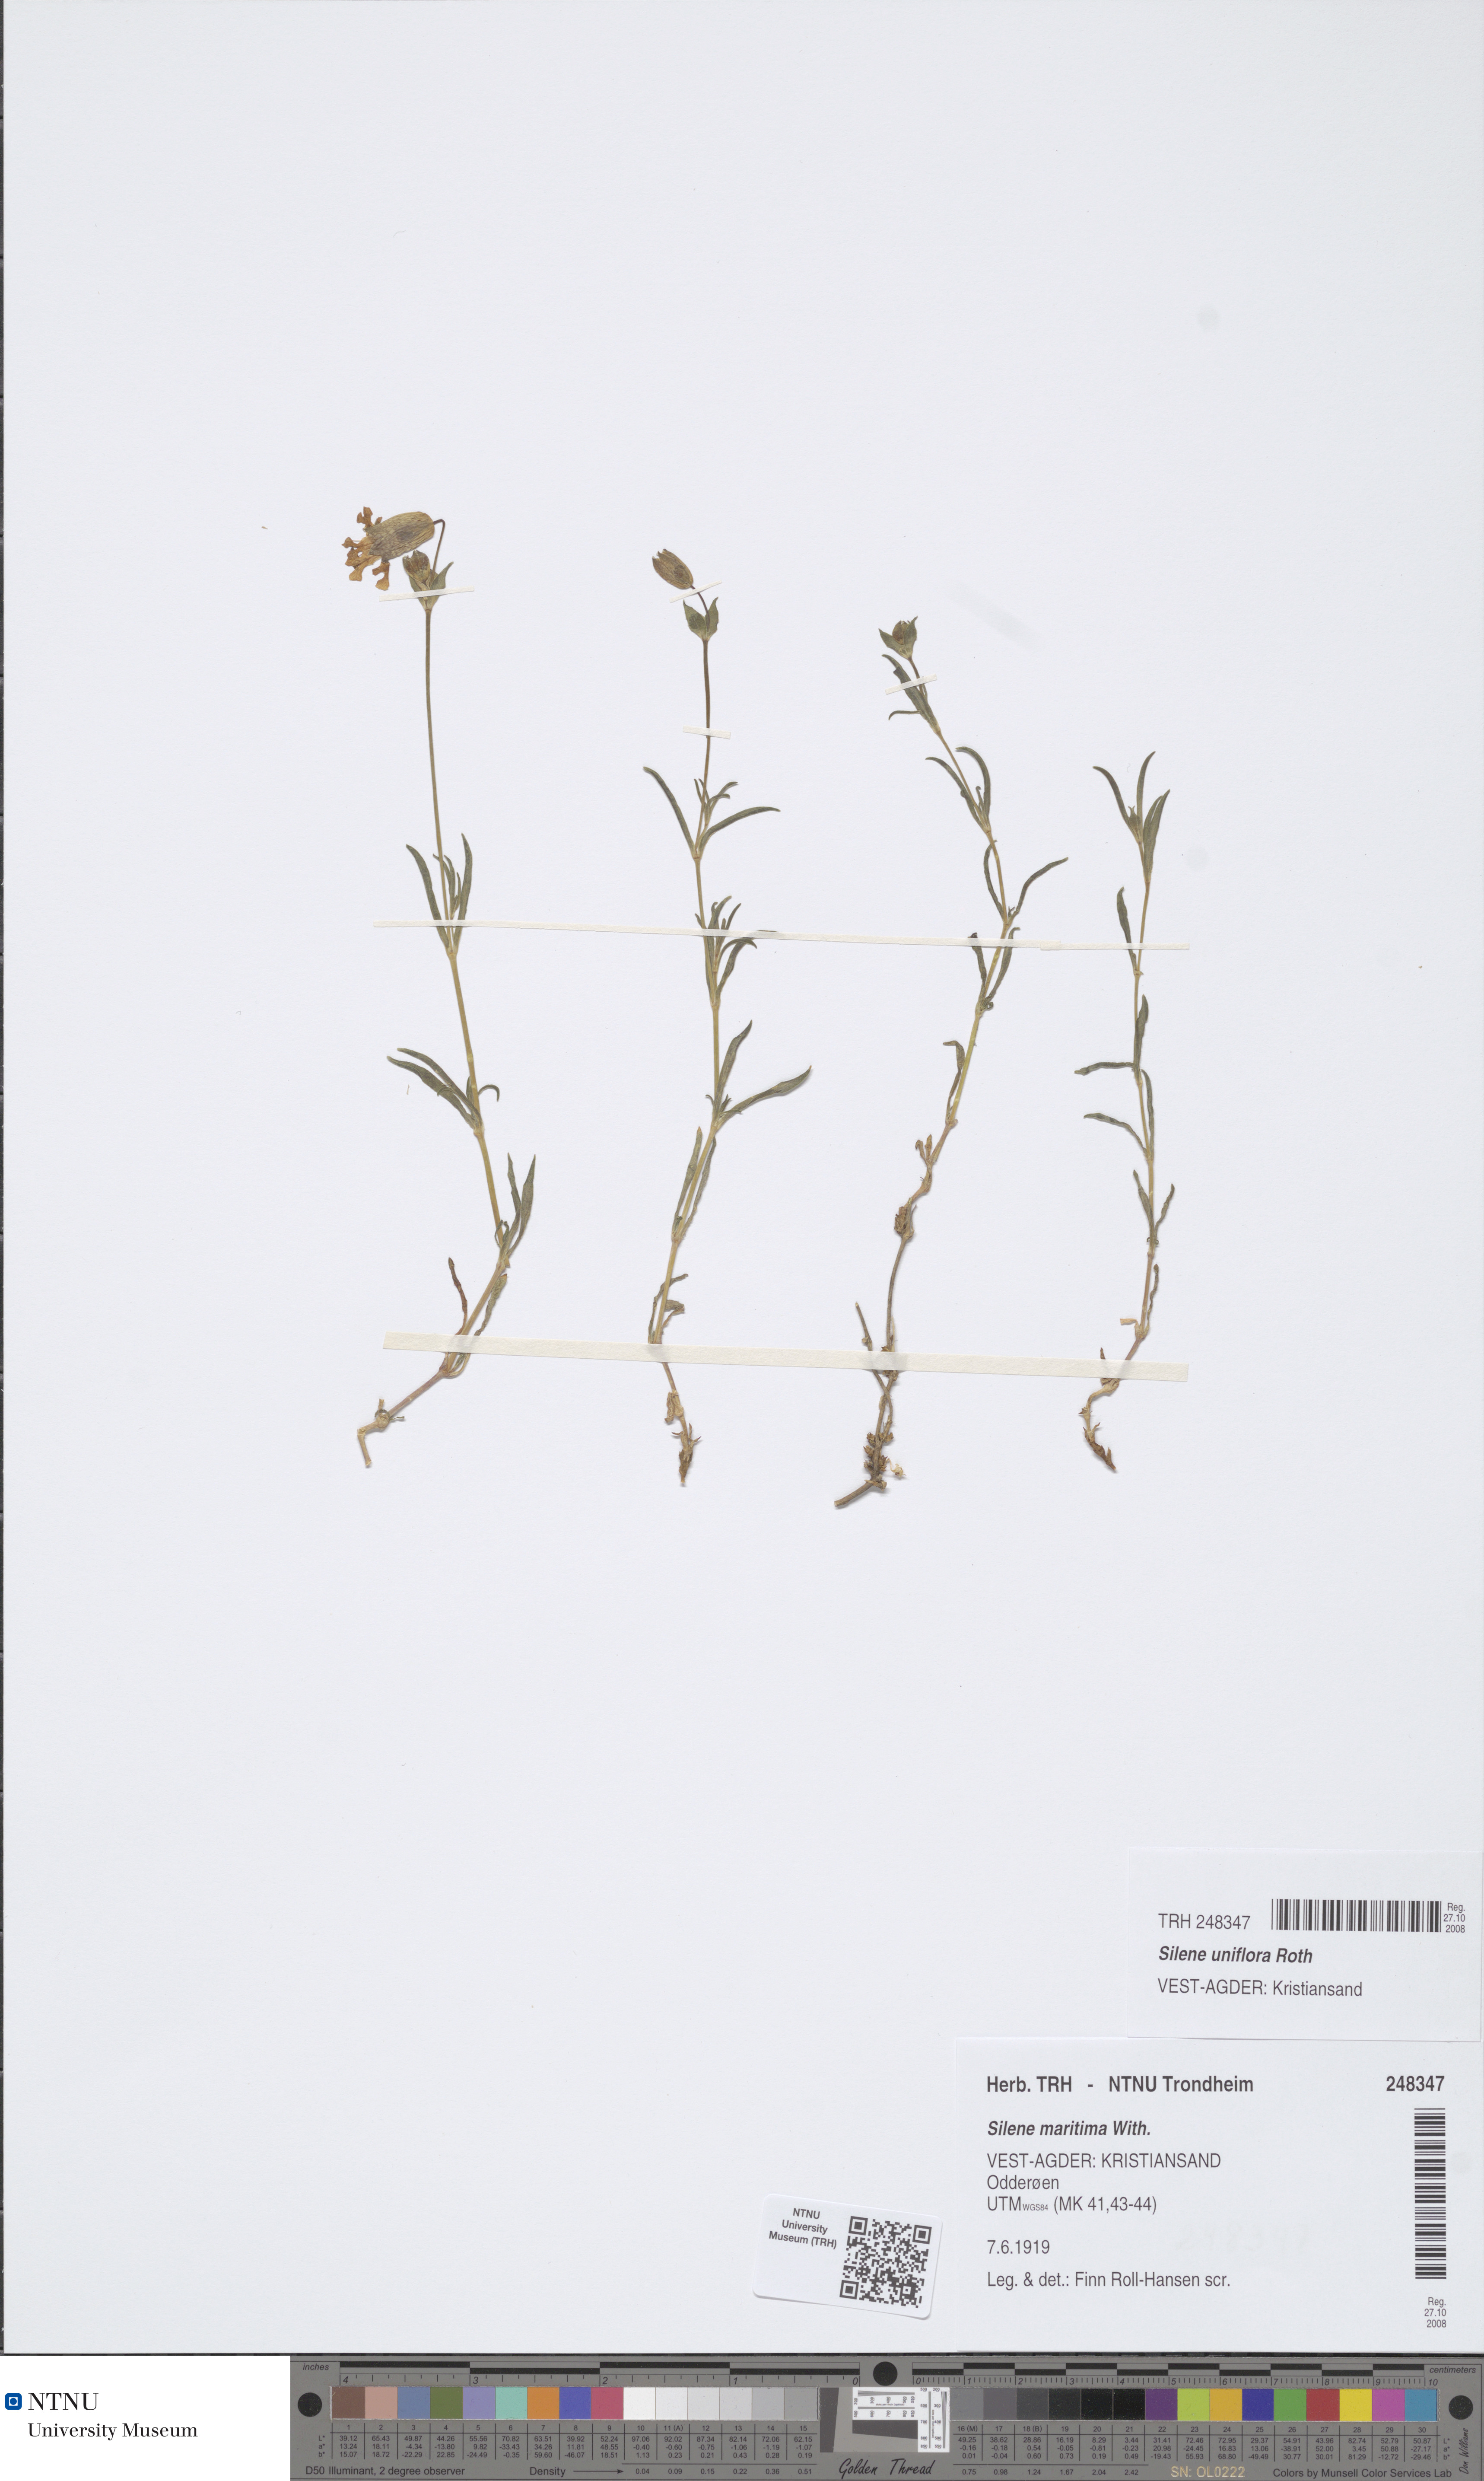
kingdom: Plantae
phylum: Tracheophyta
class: Magnoliopsida
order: Caryophyllales
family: Caryophyllaceae
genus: Silene
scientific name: Silene uniflora
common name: Sea campion
